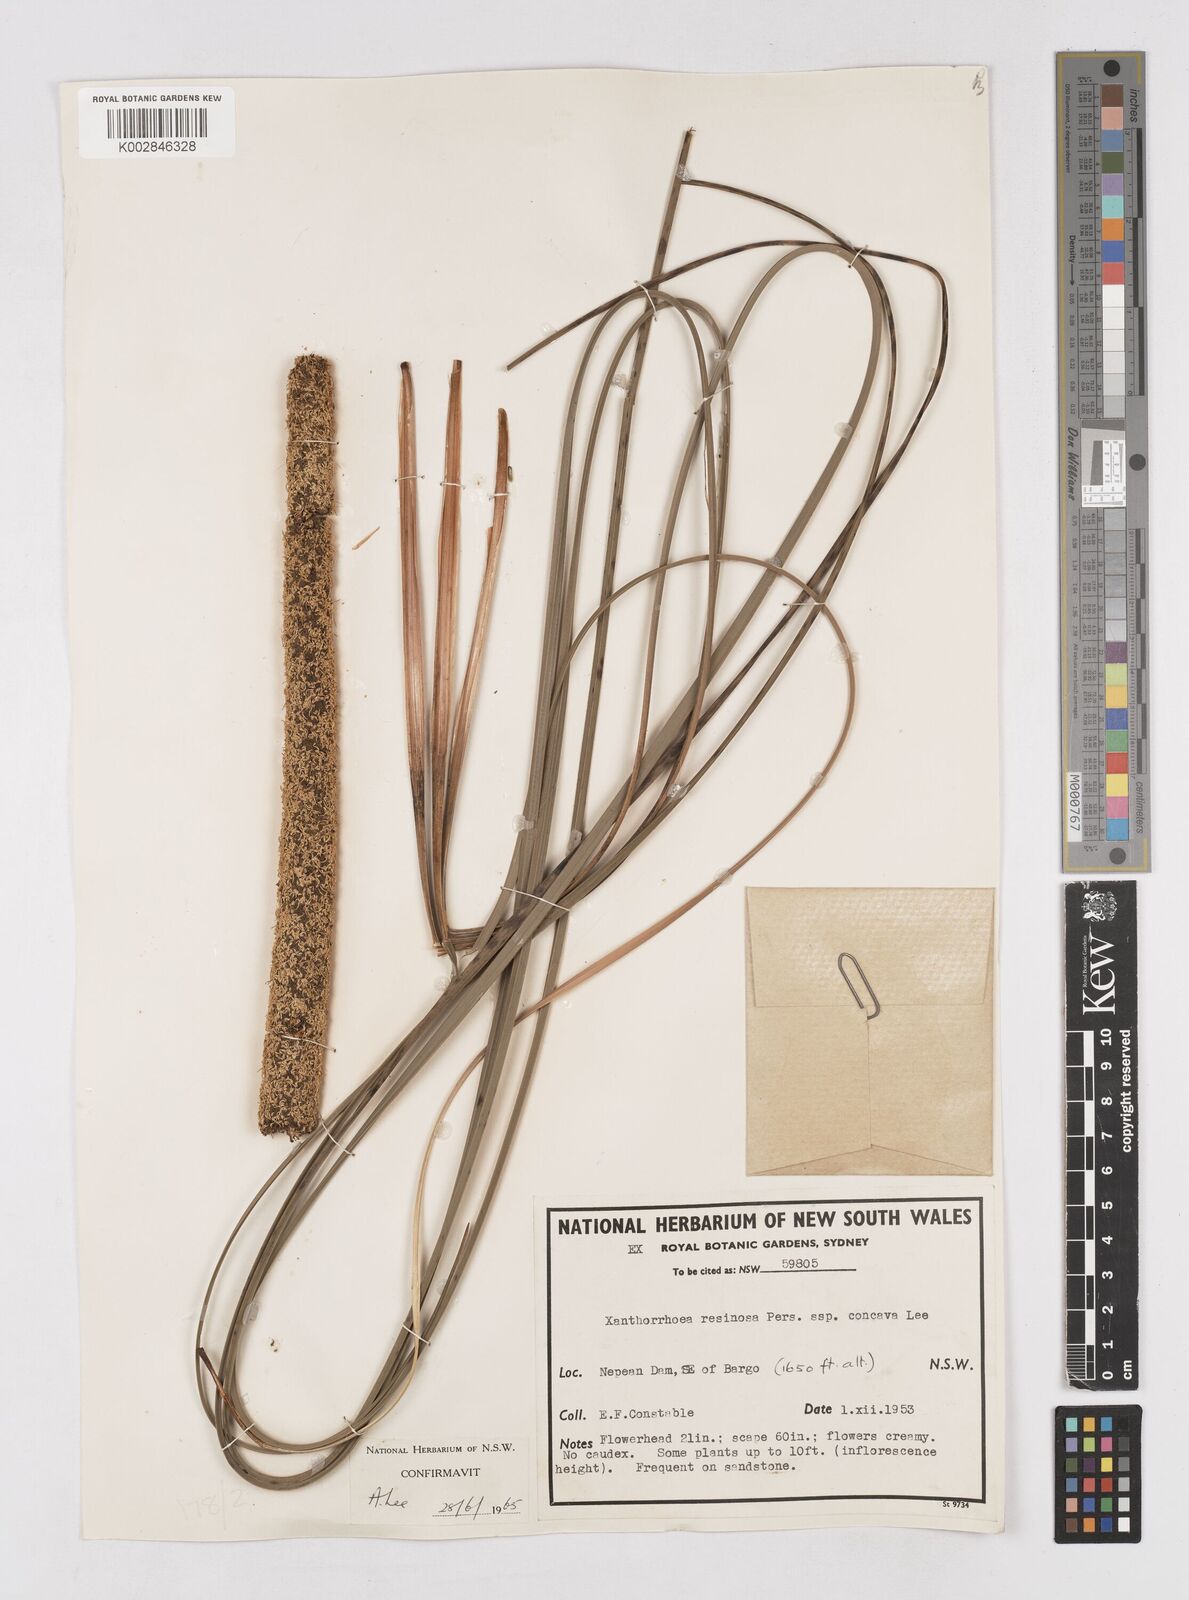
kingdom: Plantae
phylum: Tracheophyta
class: Liliopsida
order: Asparagales
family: Asphodelaceae
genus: Xanthorrhoea
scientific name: Xanthorrhoea
